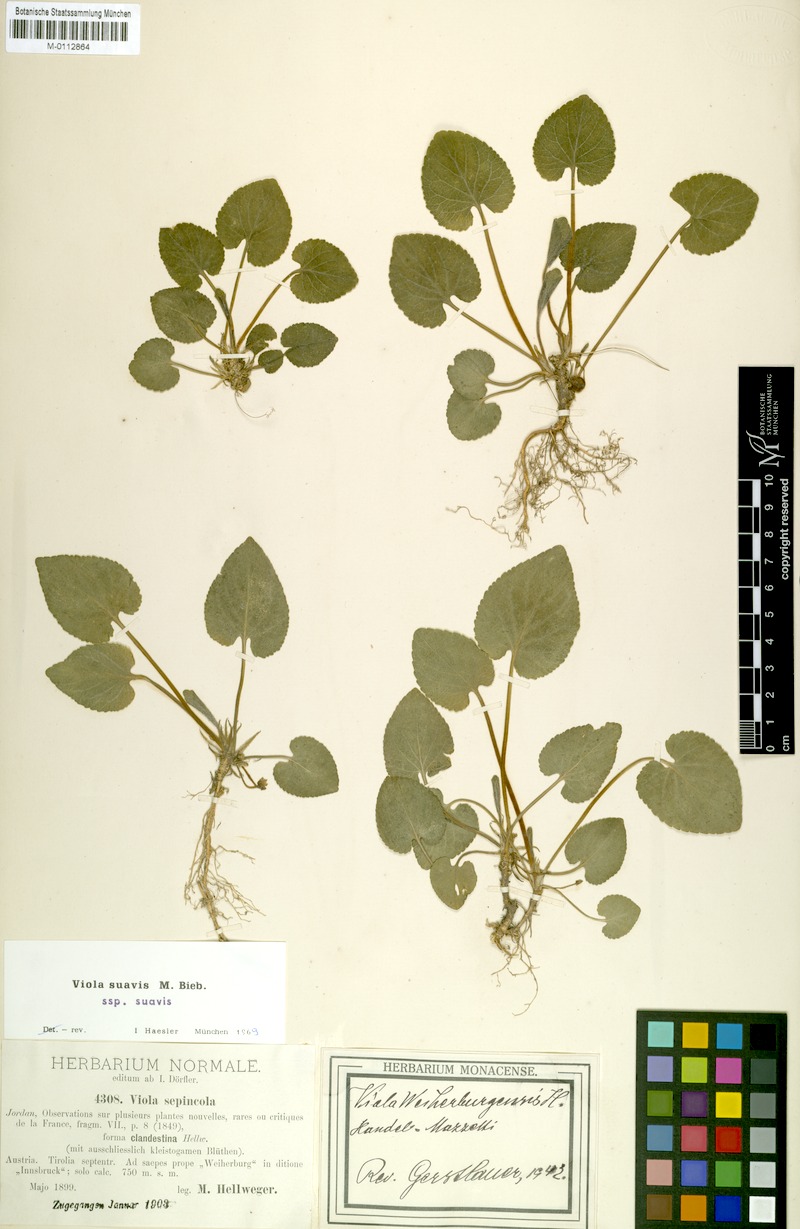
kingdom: Plantae
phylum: Tracheophyta
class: Magnoliopsida
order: Malpighiales
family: Violaceae
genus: Viola
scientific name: Viola suavis
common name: Russian violet
